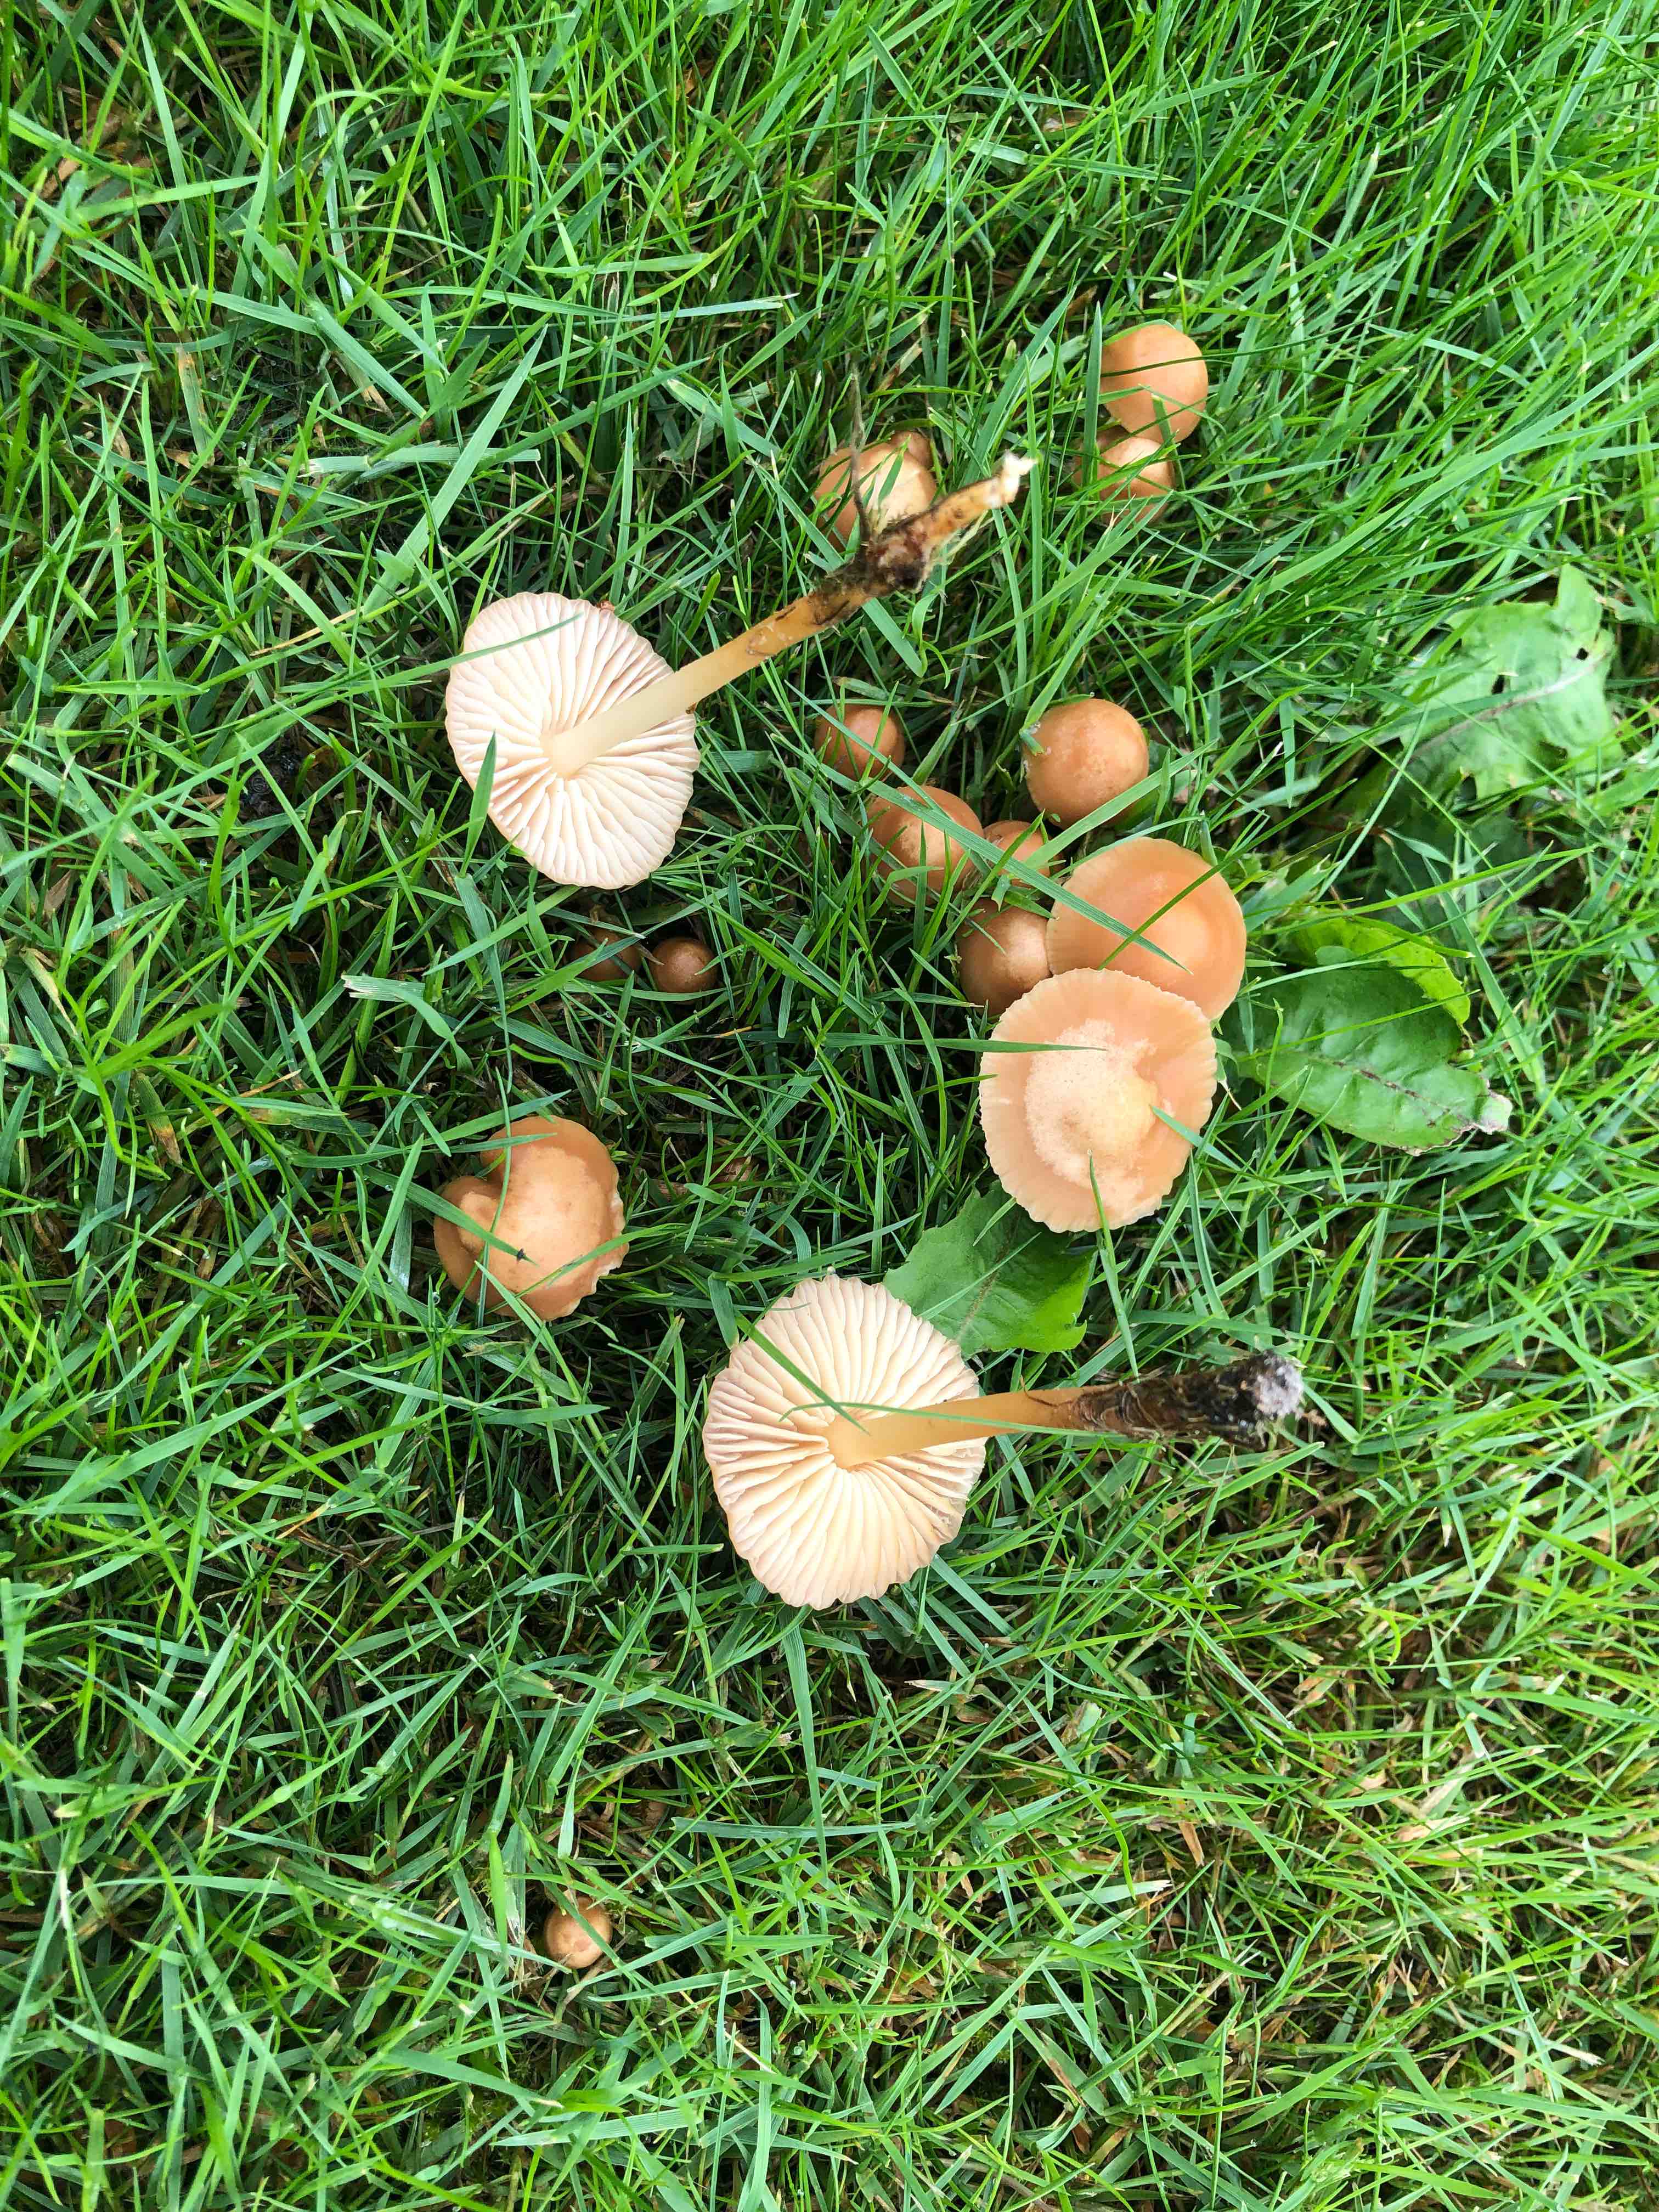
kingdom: Fungi
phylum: Basidiomycota
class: Agaricomycetes
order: Agaricales
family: Marasmiaceae
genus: Marasmius
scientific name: Marasmius oreades
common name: elledans-bruskhat
